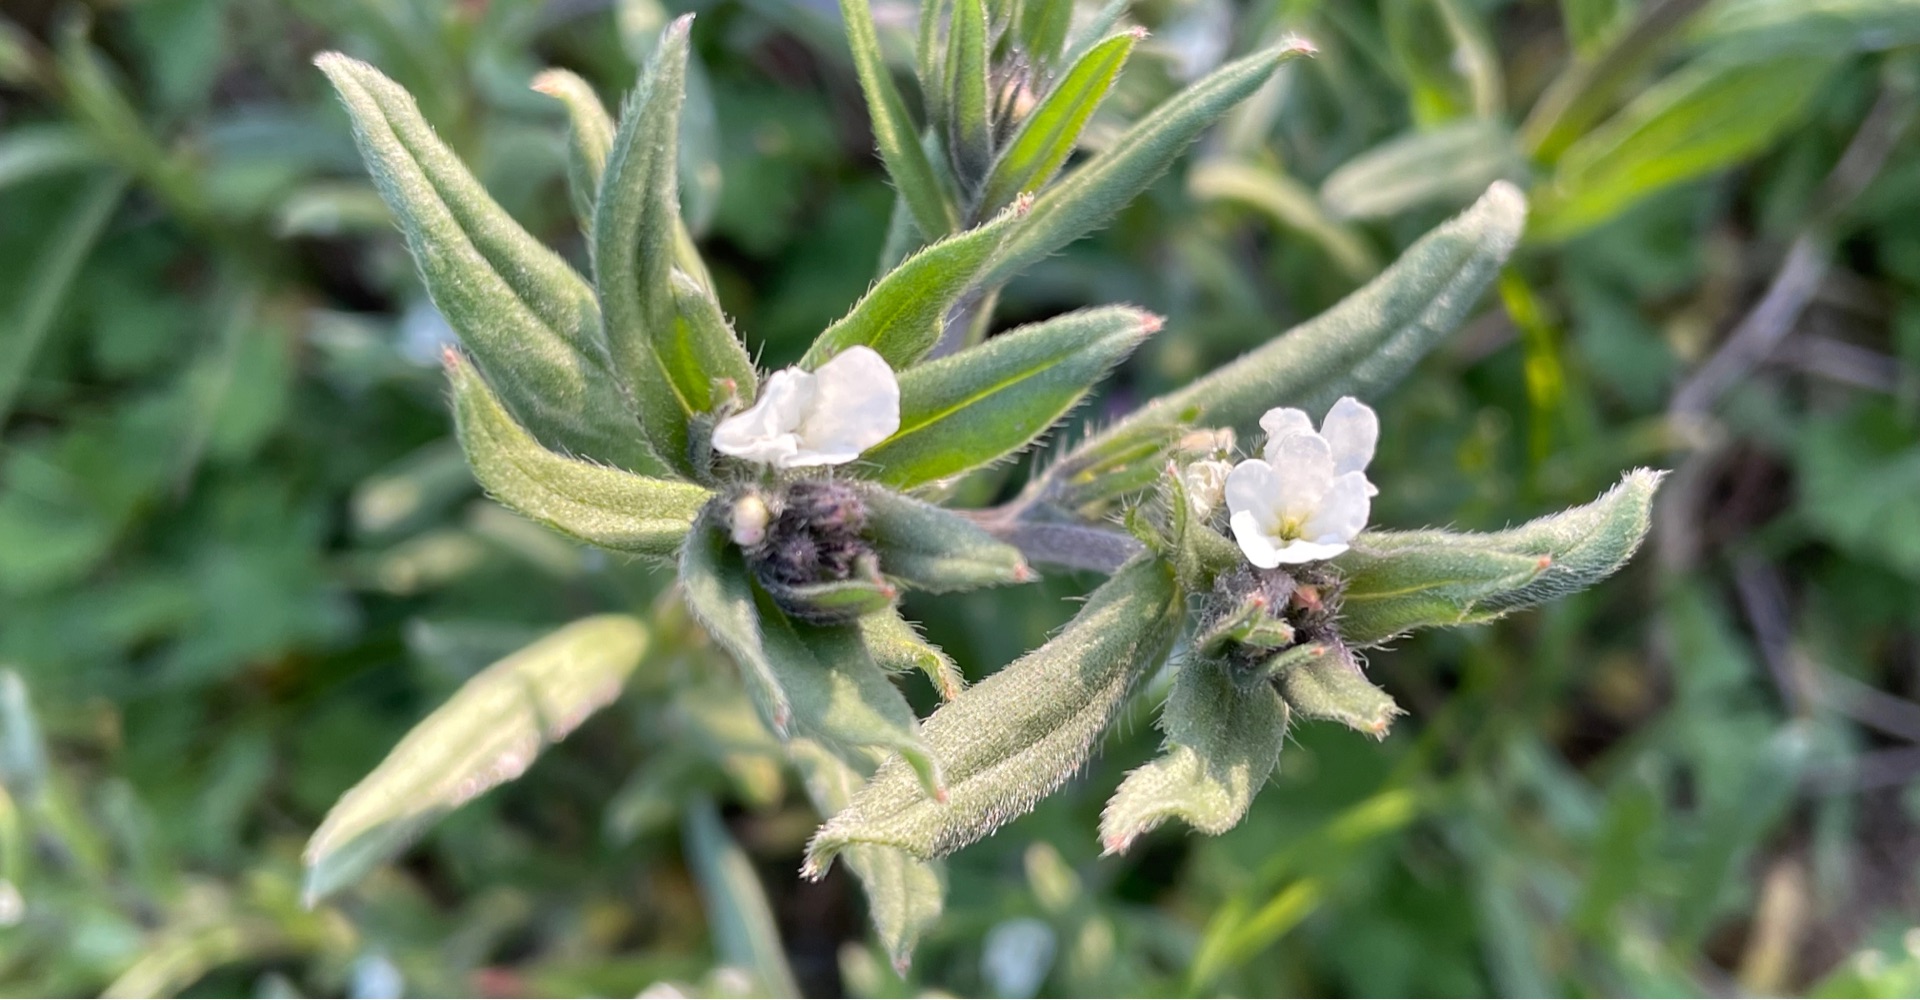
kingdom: Plantae
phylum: Tracheophyta
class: Magnoliopsida
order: Boraginales
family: Boraginaceae
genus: Buglossoides
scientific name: Buglossoides arvensis
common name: Rynket stenfrø
